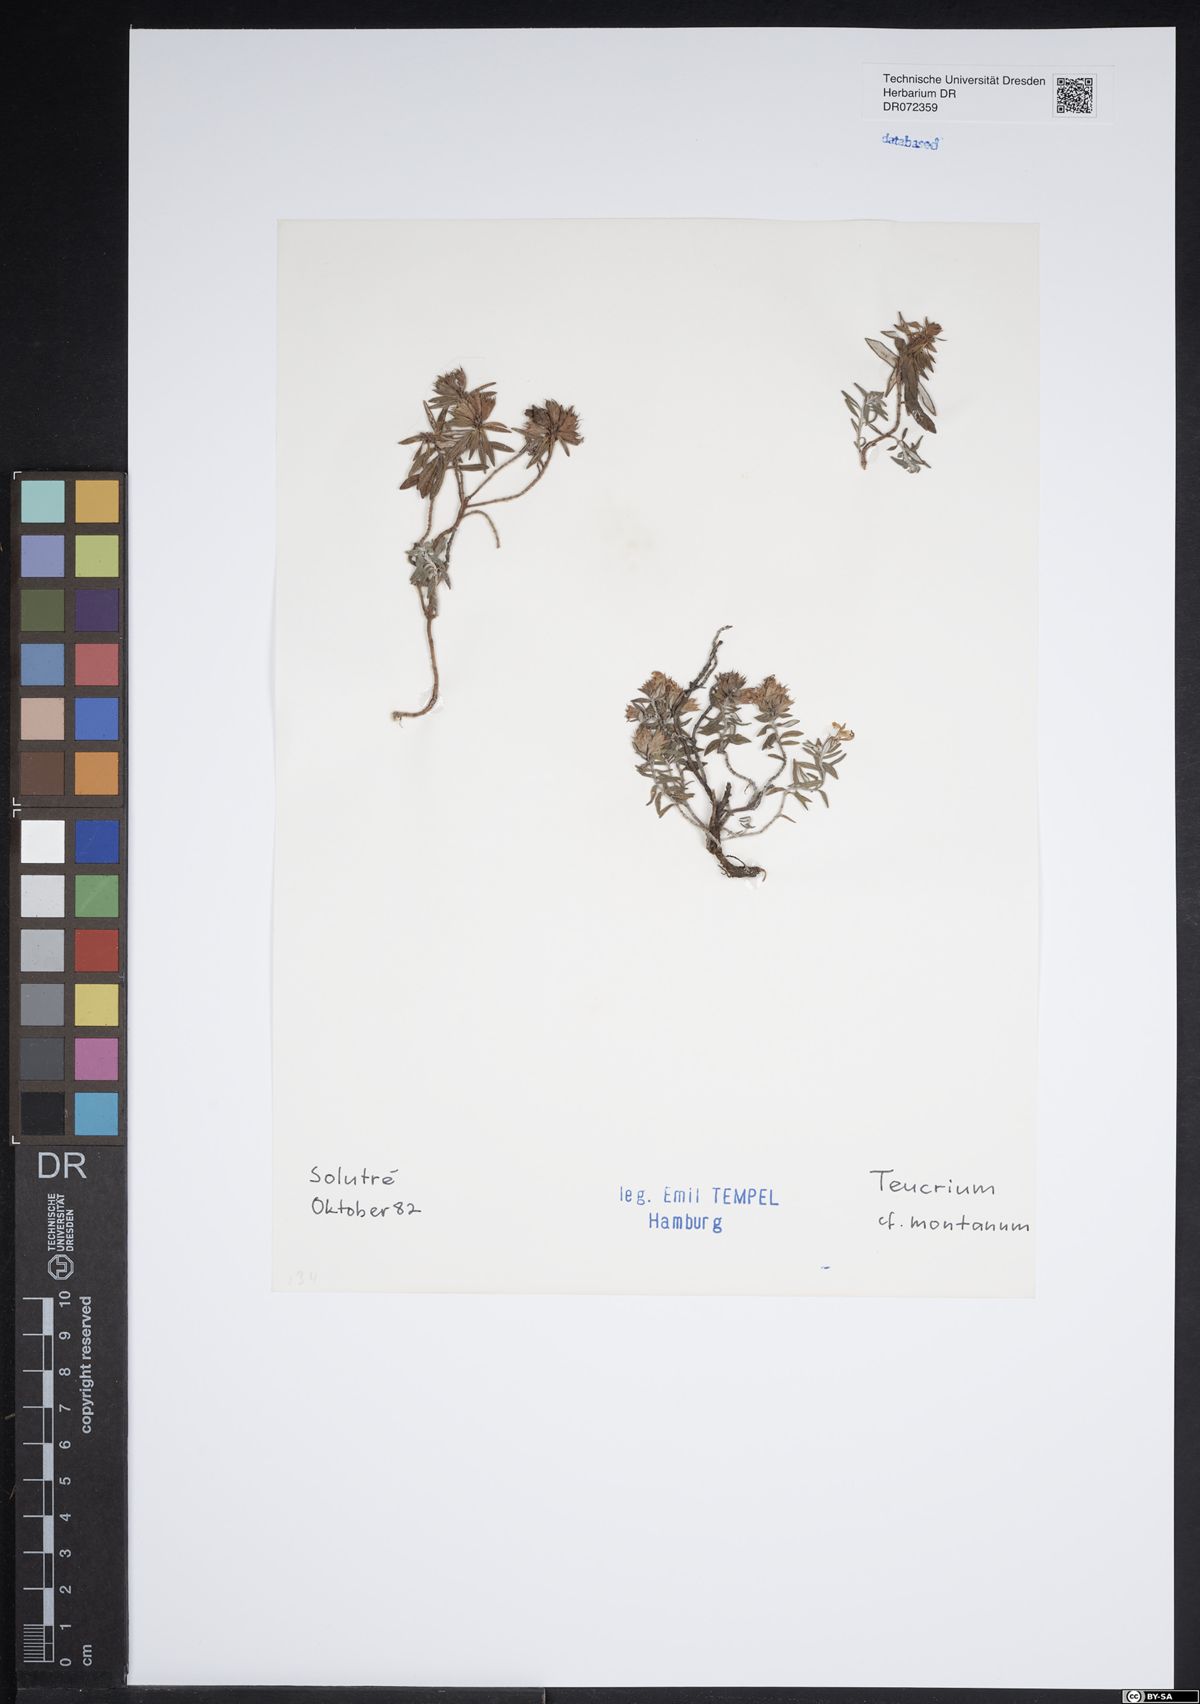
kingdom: Plantae
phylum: Tracheophyta
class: Magnoliopsida
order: Lamiales
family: Lamiaceae
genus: Teucrium
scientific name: Teucrium montanum
